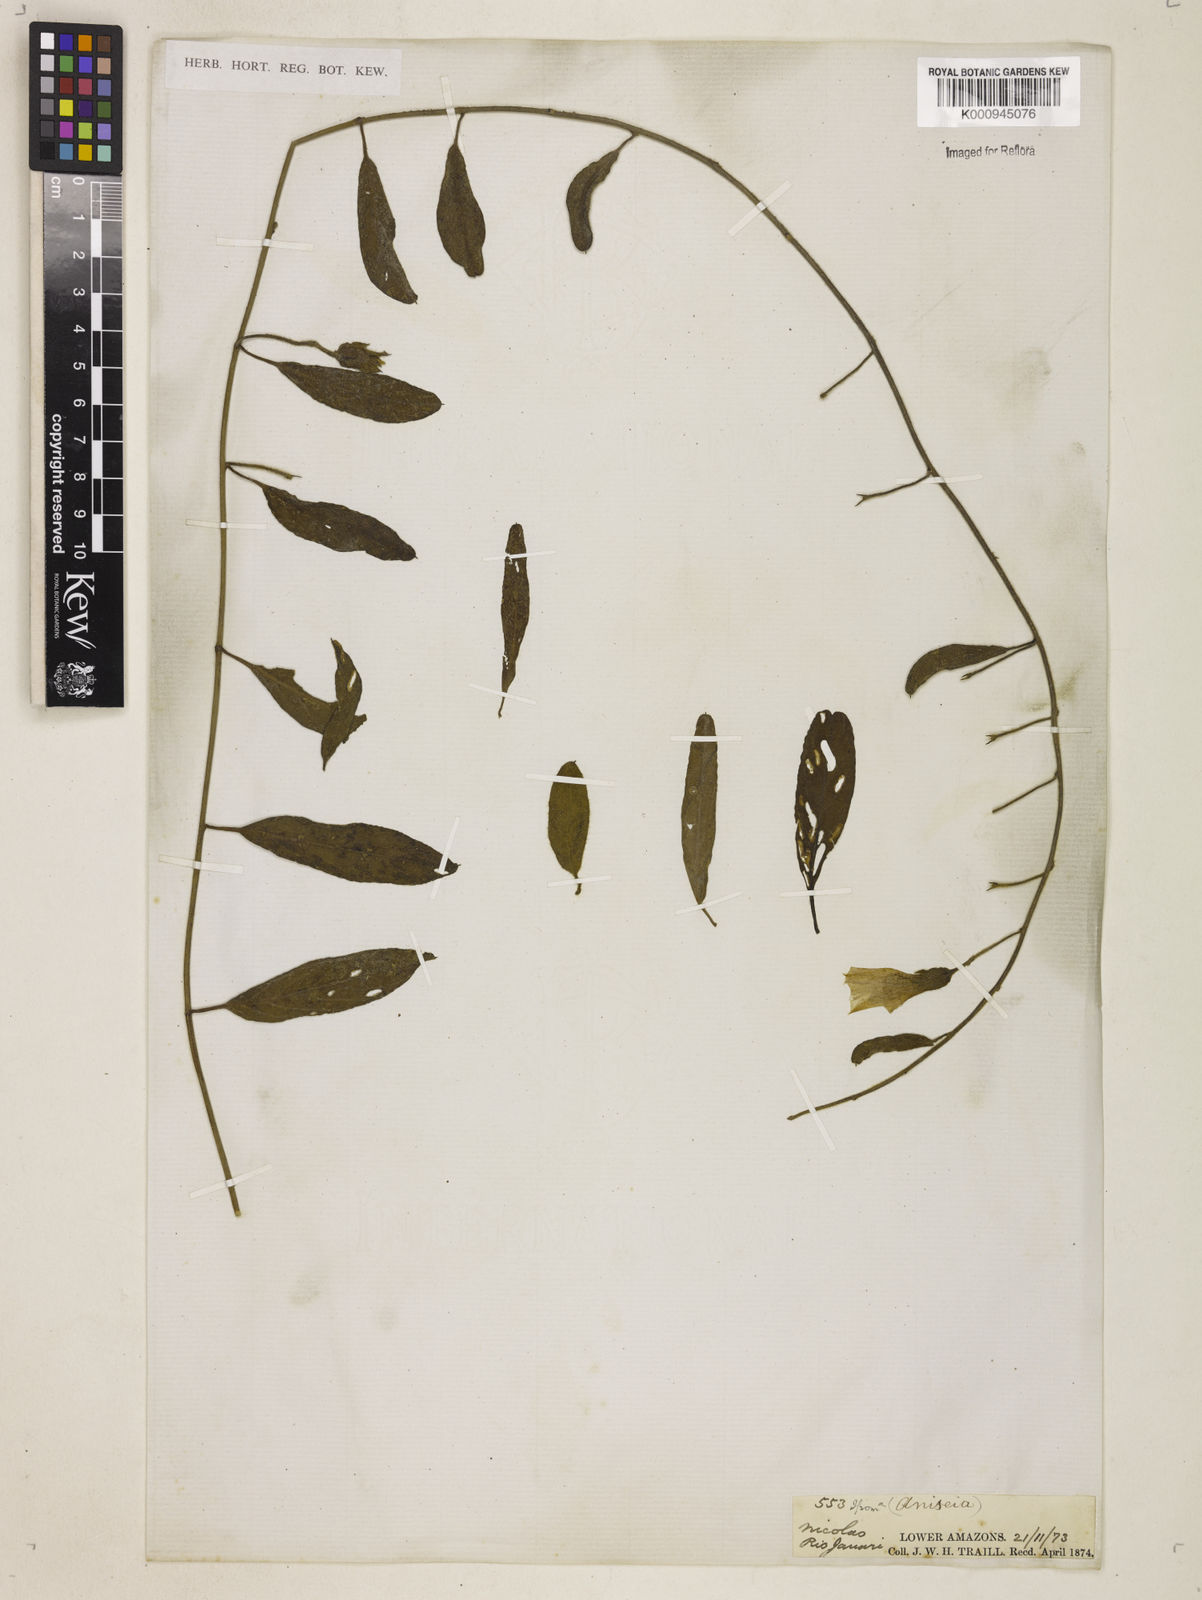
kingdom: Plantae
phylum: Tracheophyta
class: Magnoliopsida
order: Solanales
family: Convolvulaceae
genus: Aniseia
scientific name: Aniseia
